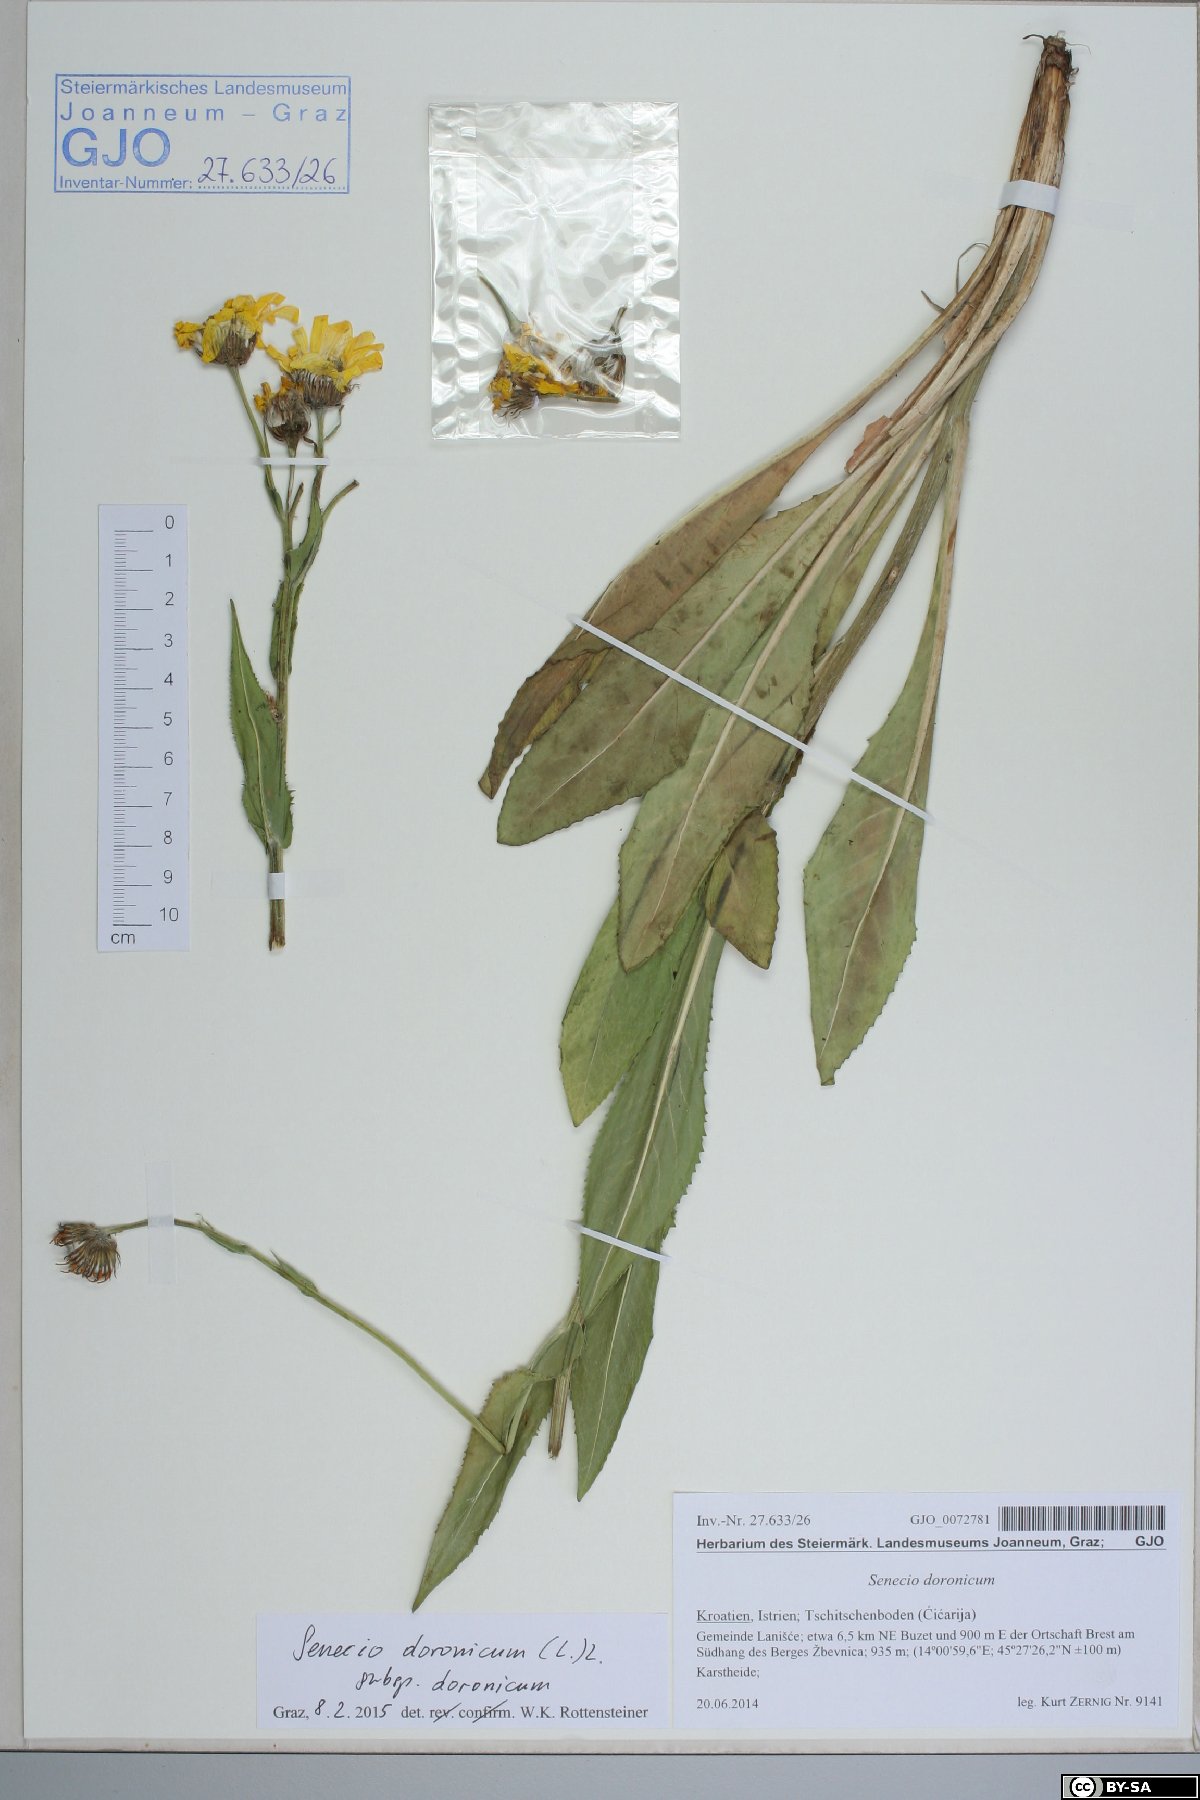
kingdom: Plantae
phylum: Tracheophyta
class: Magnoliopsida
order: Asterales
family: Asteraceae
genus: Senecio
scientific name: Senecio doronicum
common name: Chamois ragwort
